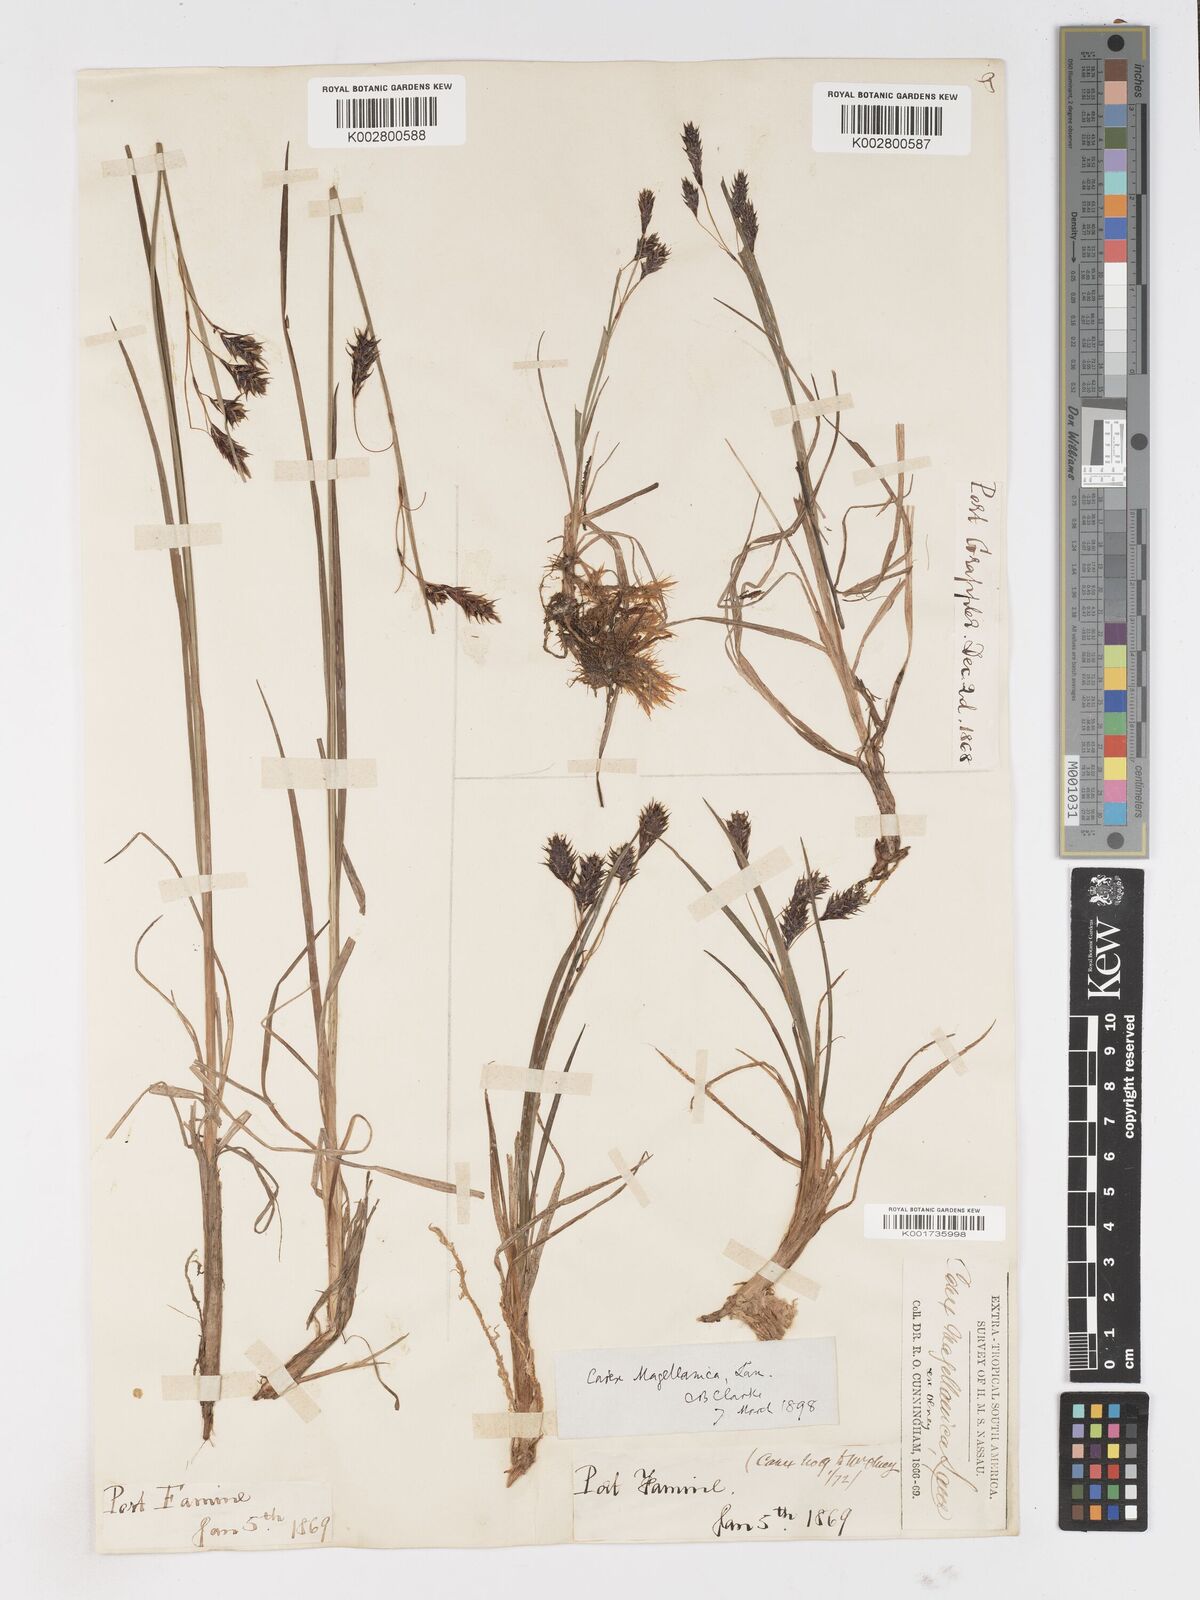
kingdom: Plantae
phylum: Tracheophyta
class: Liliopsida
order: Poales
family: Cyperaceae
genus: Carex
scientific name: Carex magellanica
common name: Bog sedge
